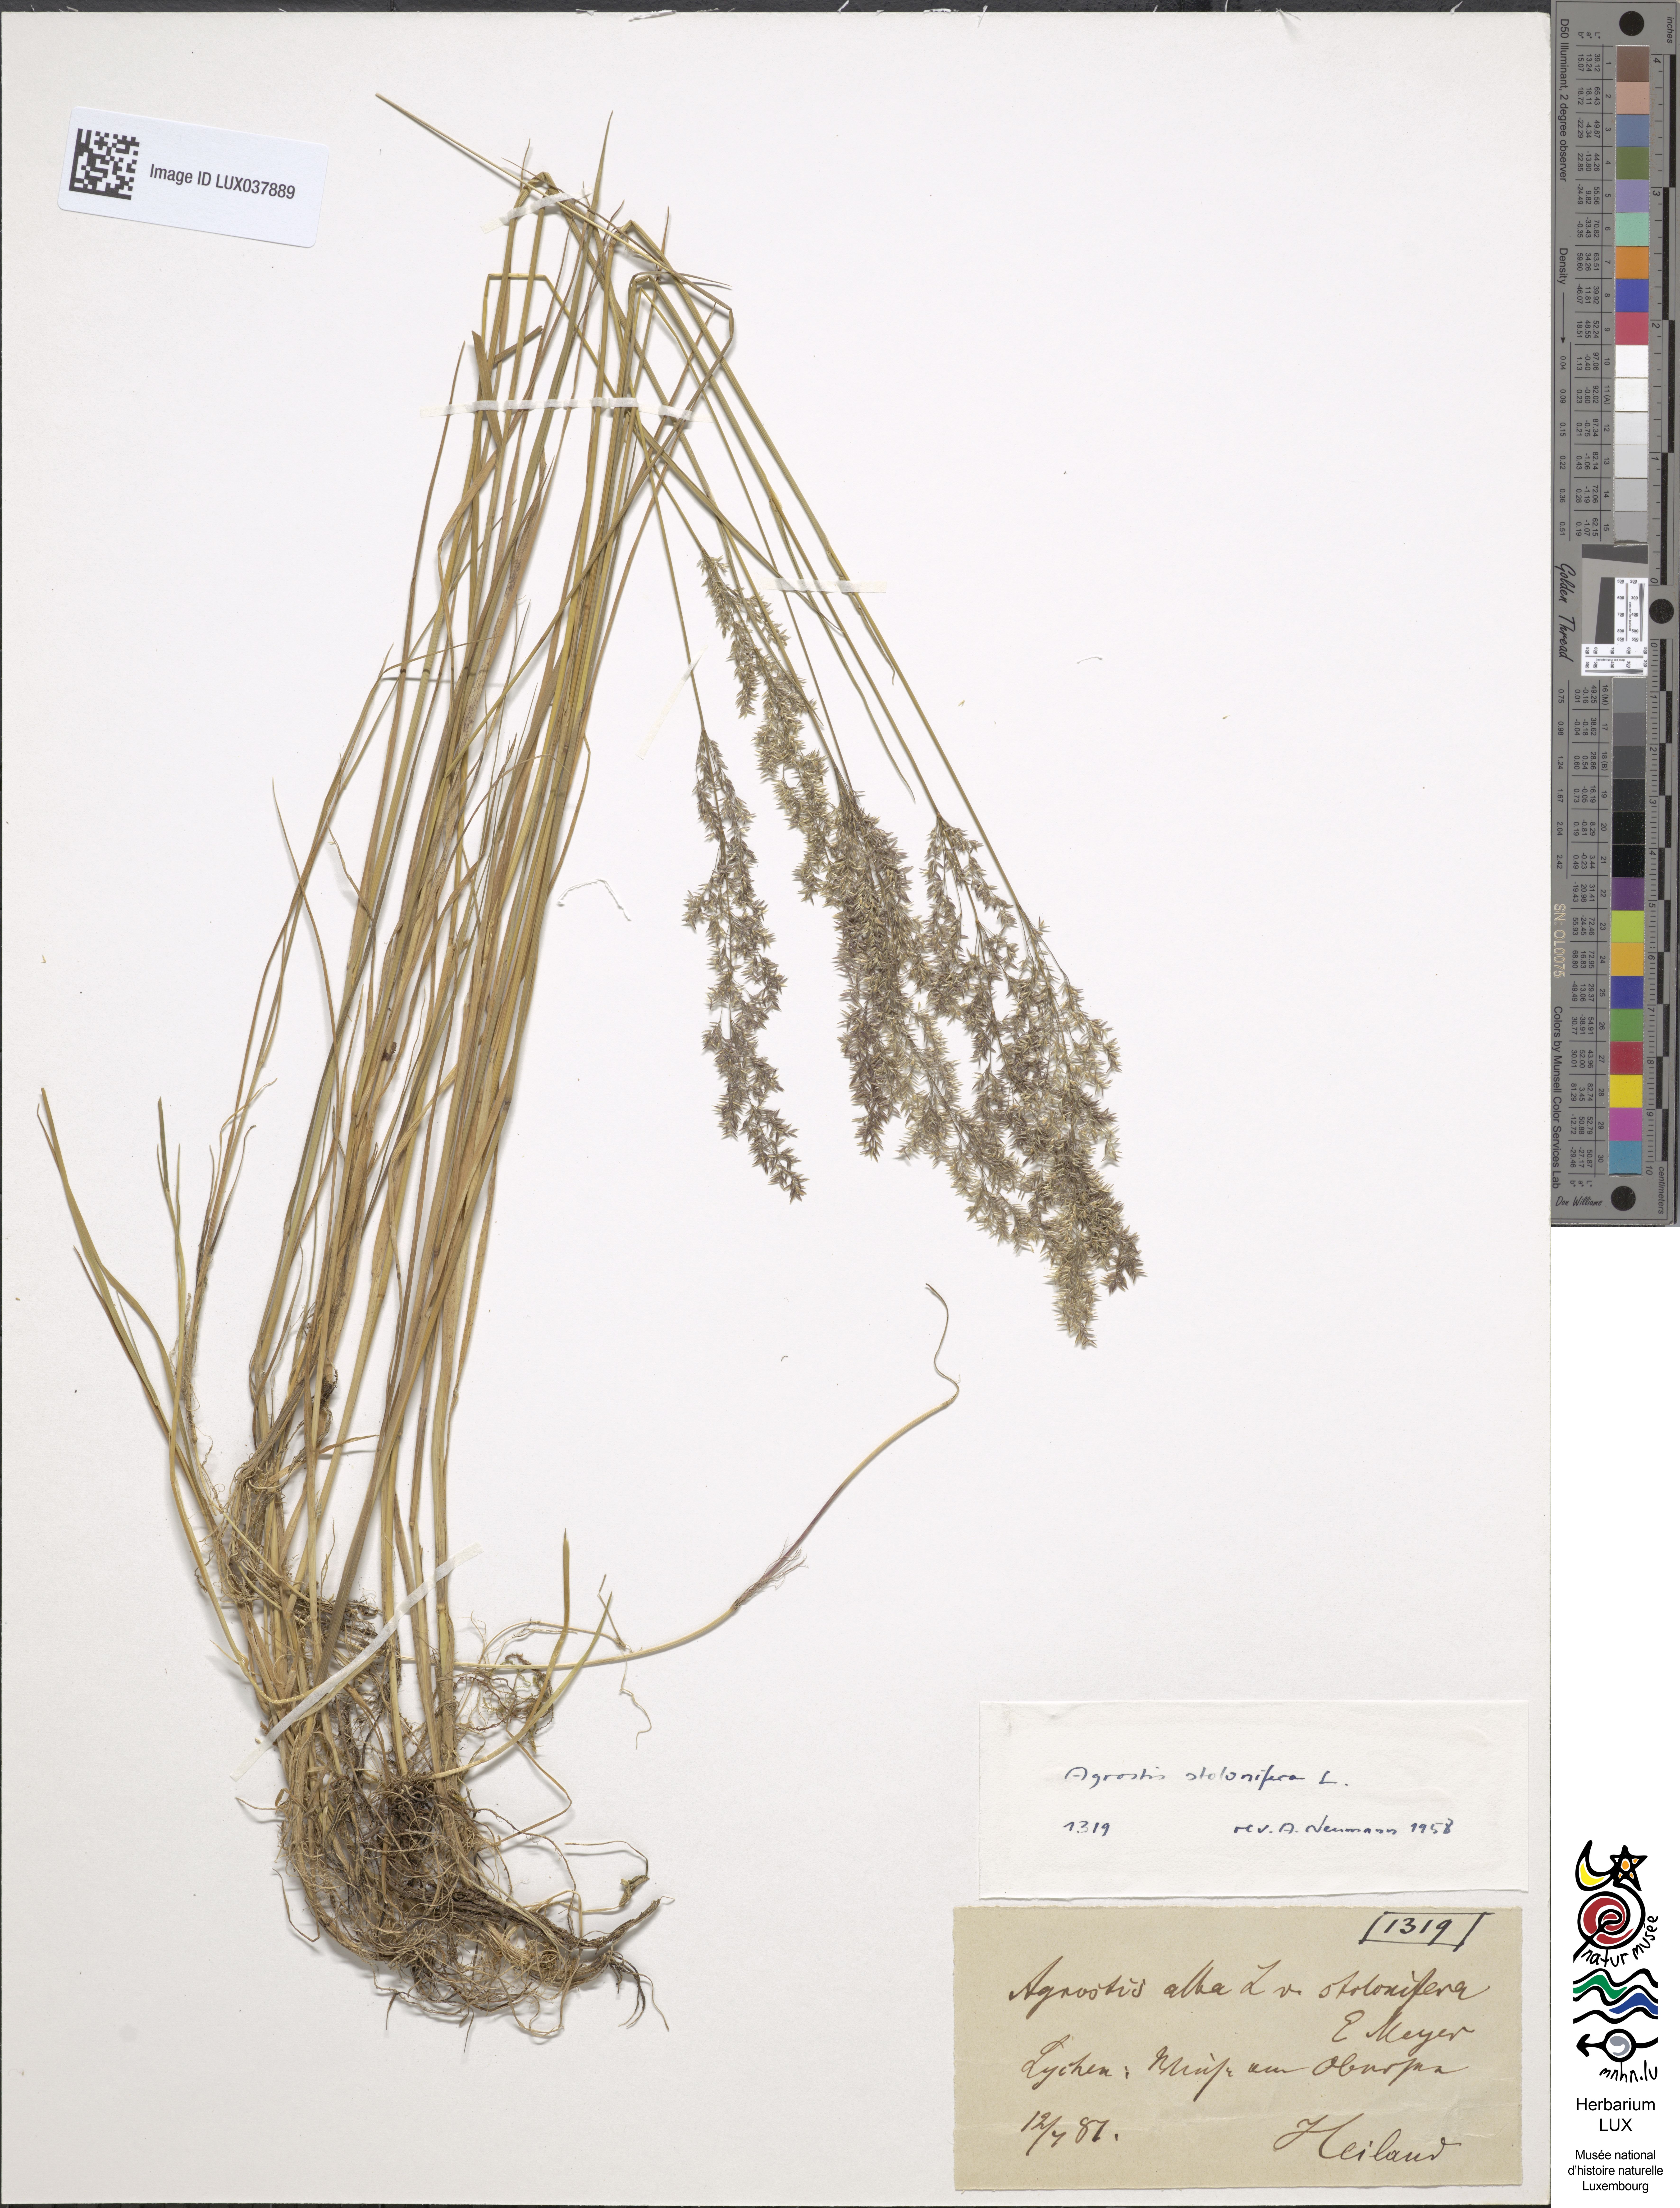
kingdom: Plantae
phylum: Tracheophyta
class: Liliopsida
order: Poales
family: Poaceae
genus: Agrostis
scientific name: Agrostis stolonifera
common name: Creeping bentgrass
